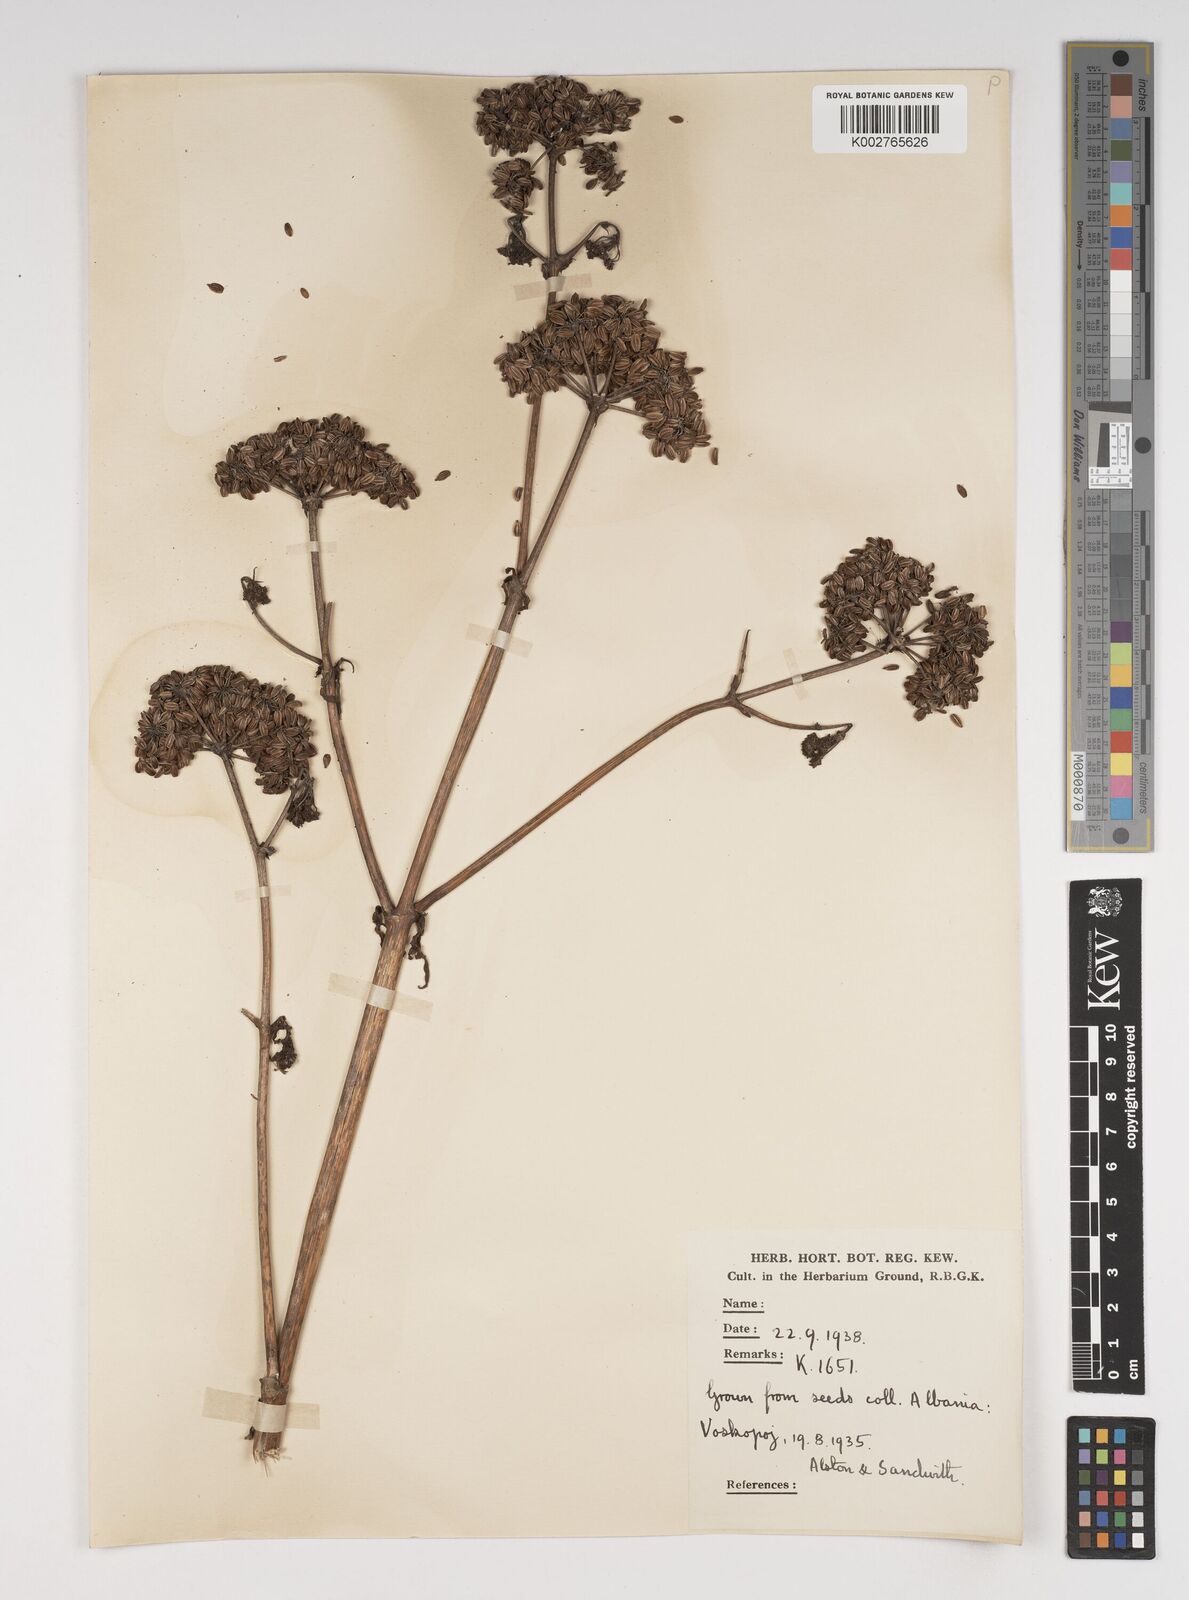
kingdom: Plantae
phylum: Tracheophyta
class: Magnoliopsida
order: Apiales
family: Apiaceae
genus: Levisticum
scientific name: Levisticum officinale
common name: Lovage
